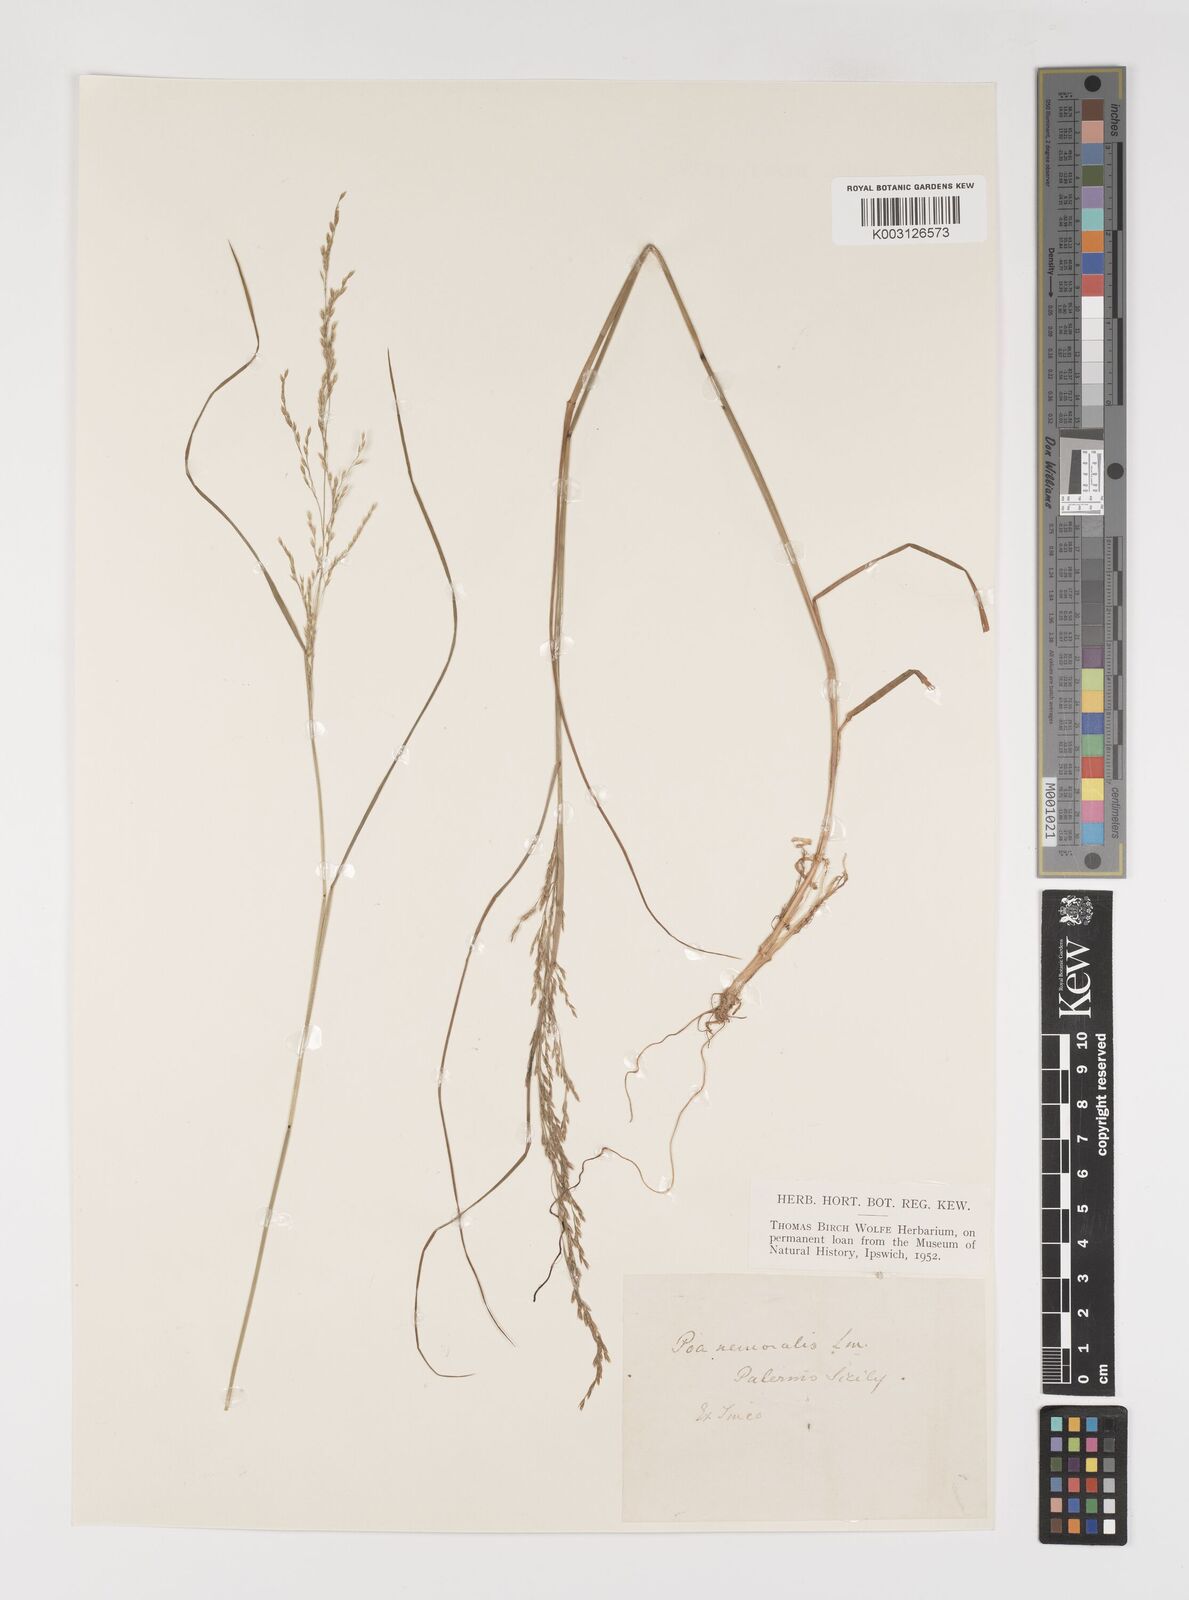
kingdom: Plantae
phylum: Tracheophyta
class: Liliopsida
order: Poales
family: Poaceae
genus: Poa
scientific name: Poa nemoralis
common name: Wood bluegrass
